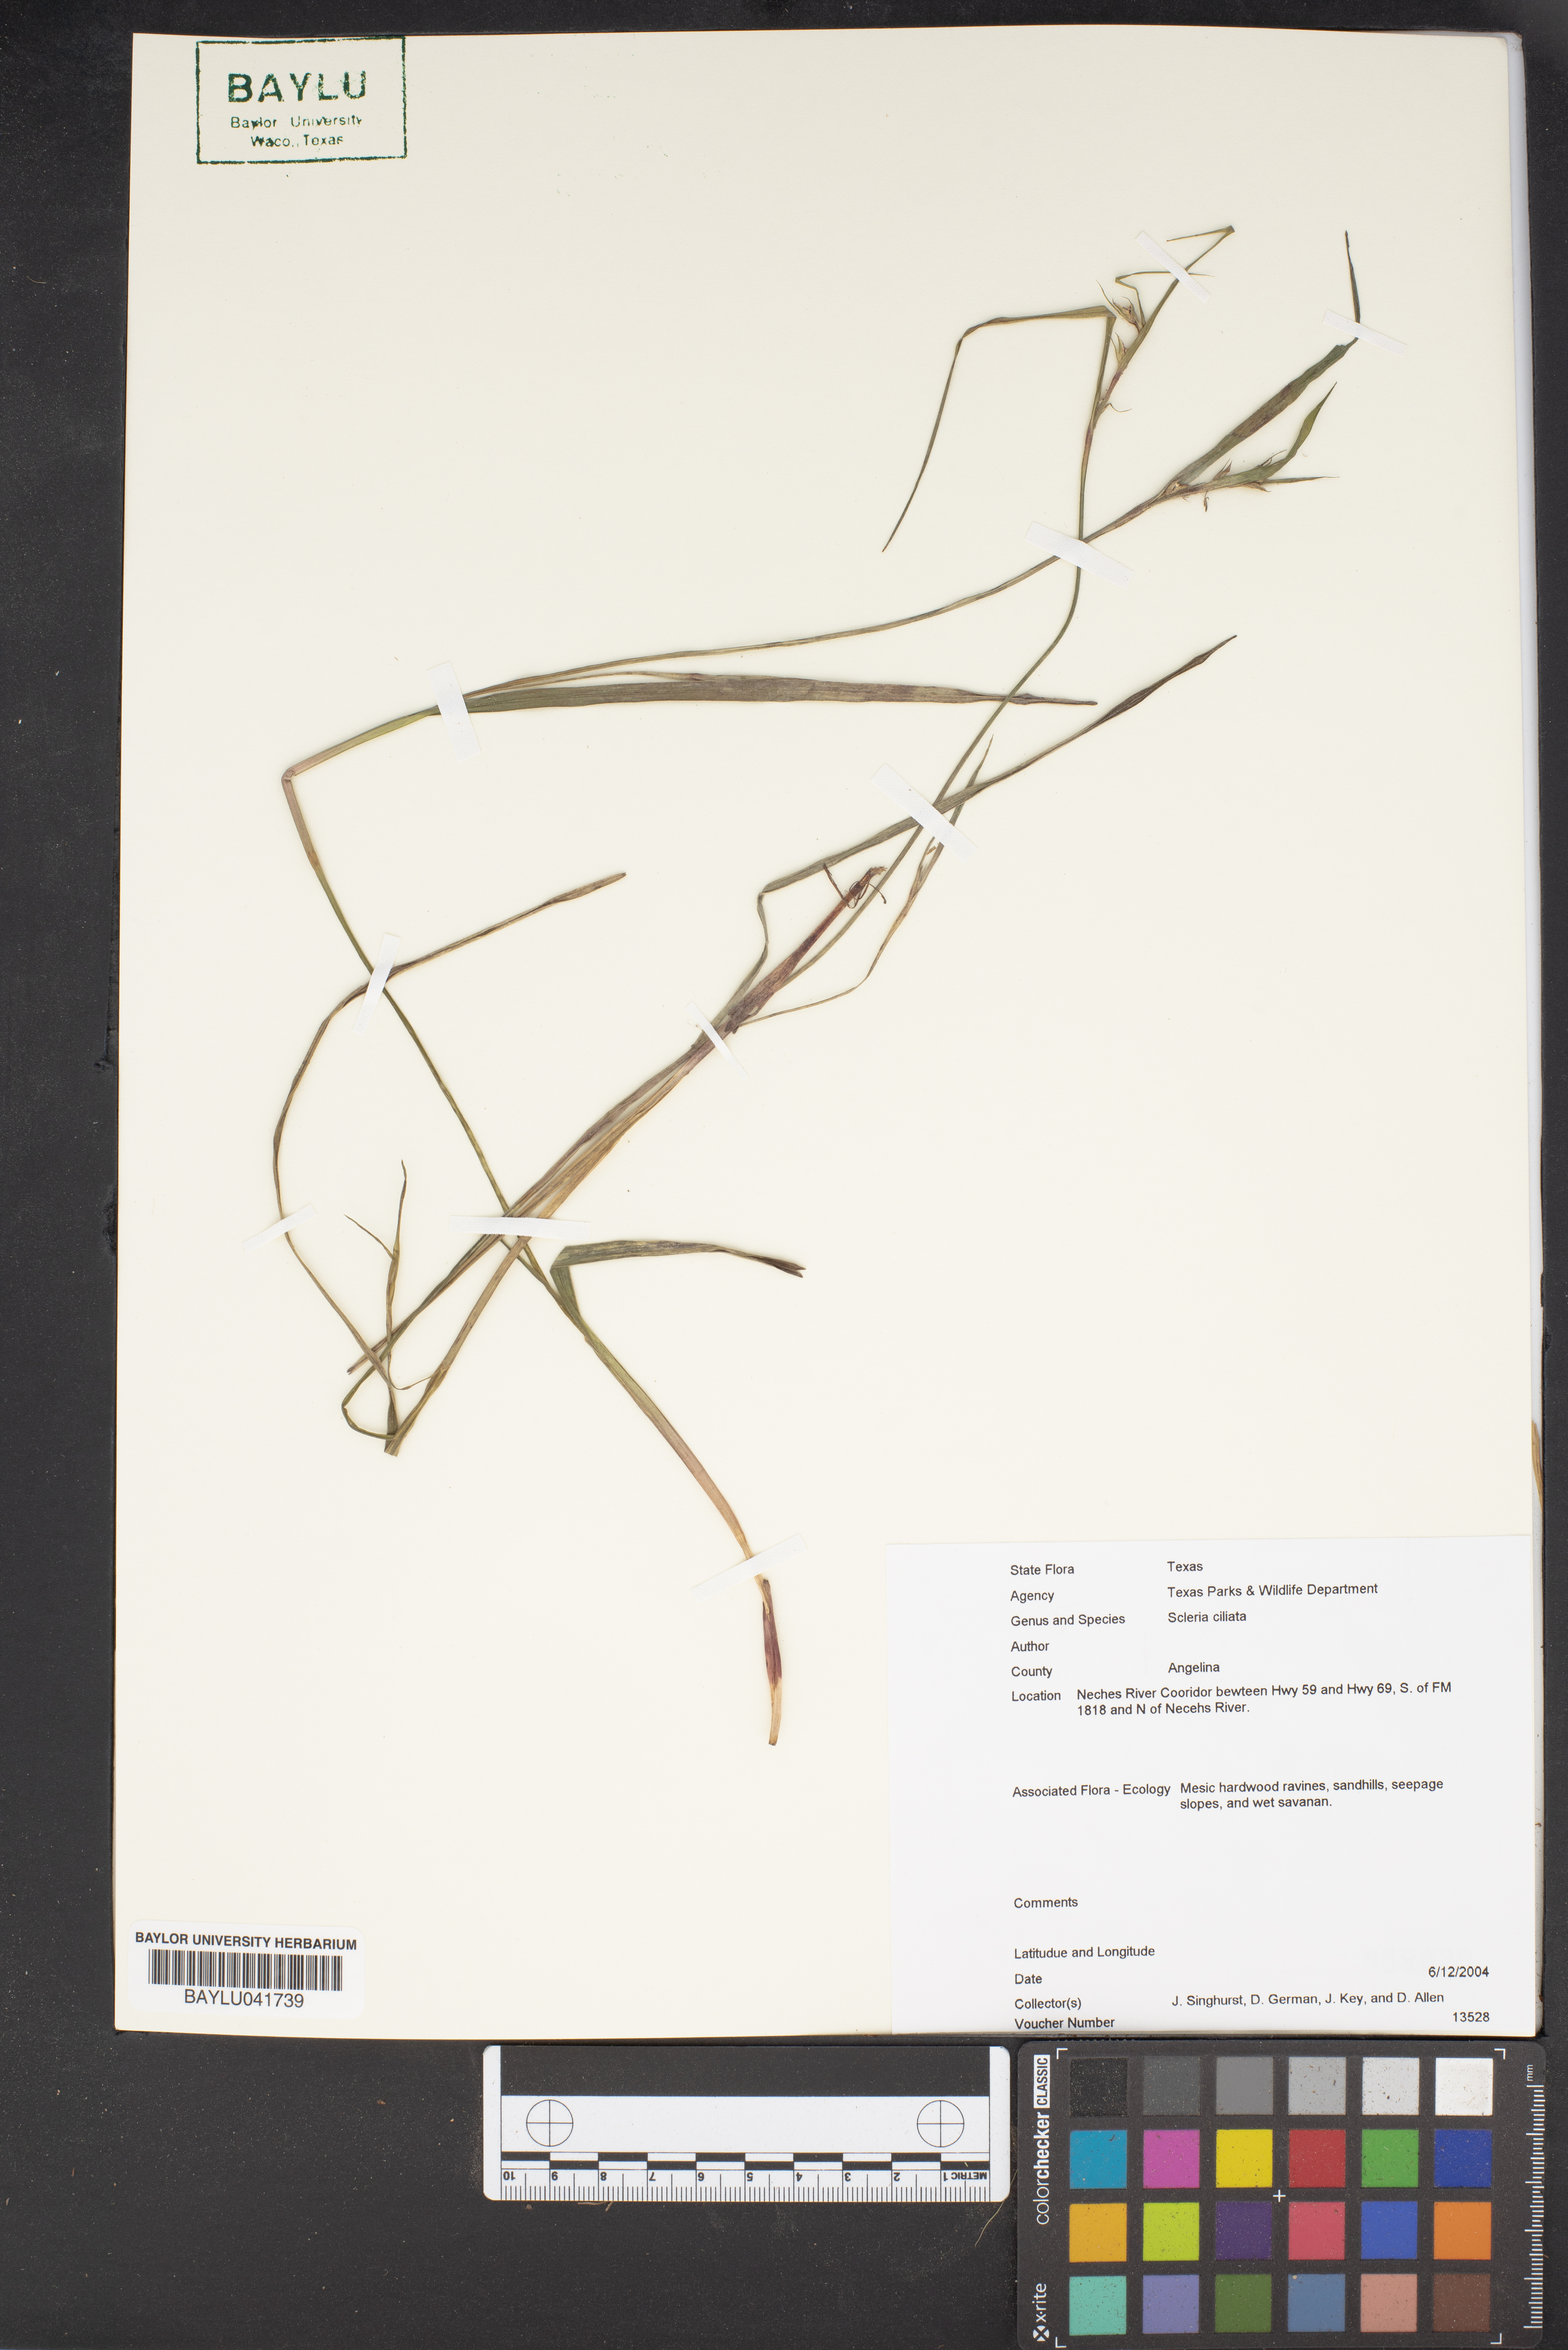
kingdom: Plantae
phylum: Tracheophyta
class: Liliopsida
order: Poales
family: Cyperaceae
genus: Scleria
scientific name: Scleria ciliata
